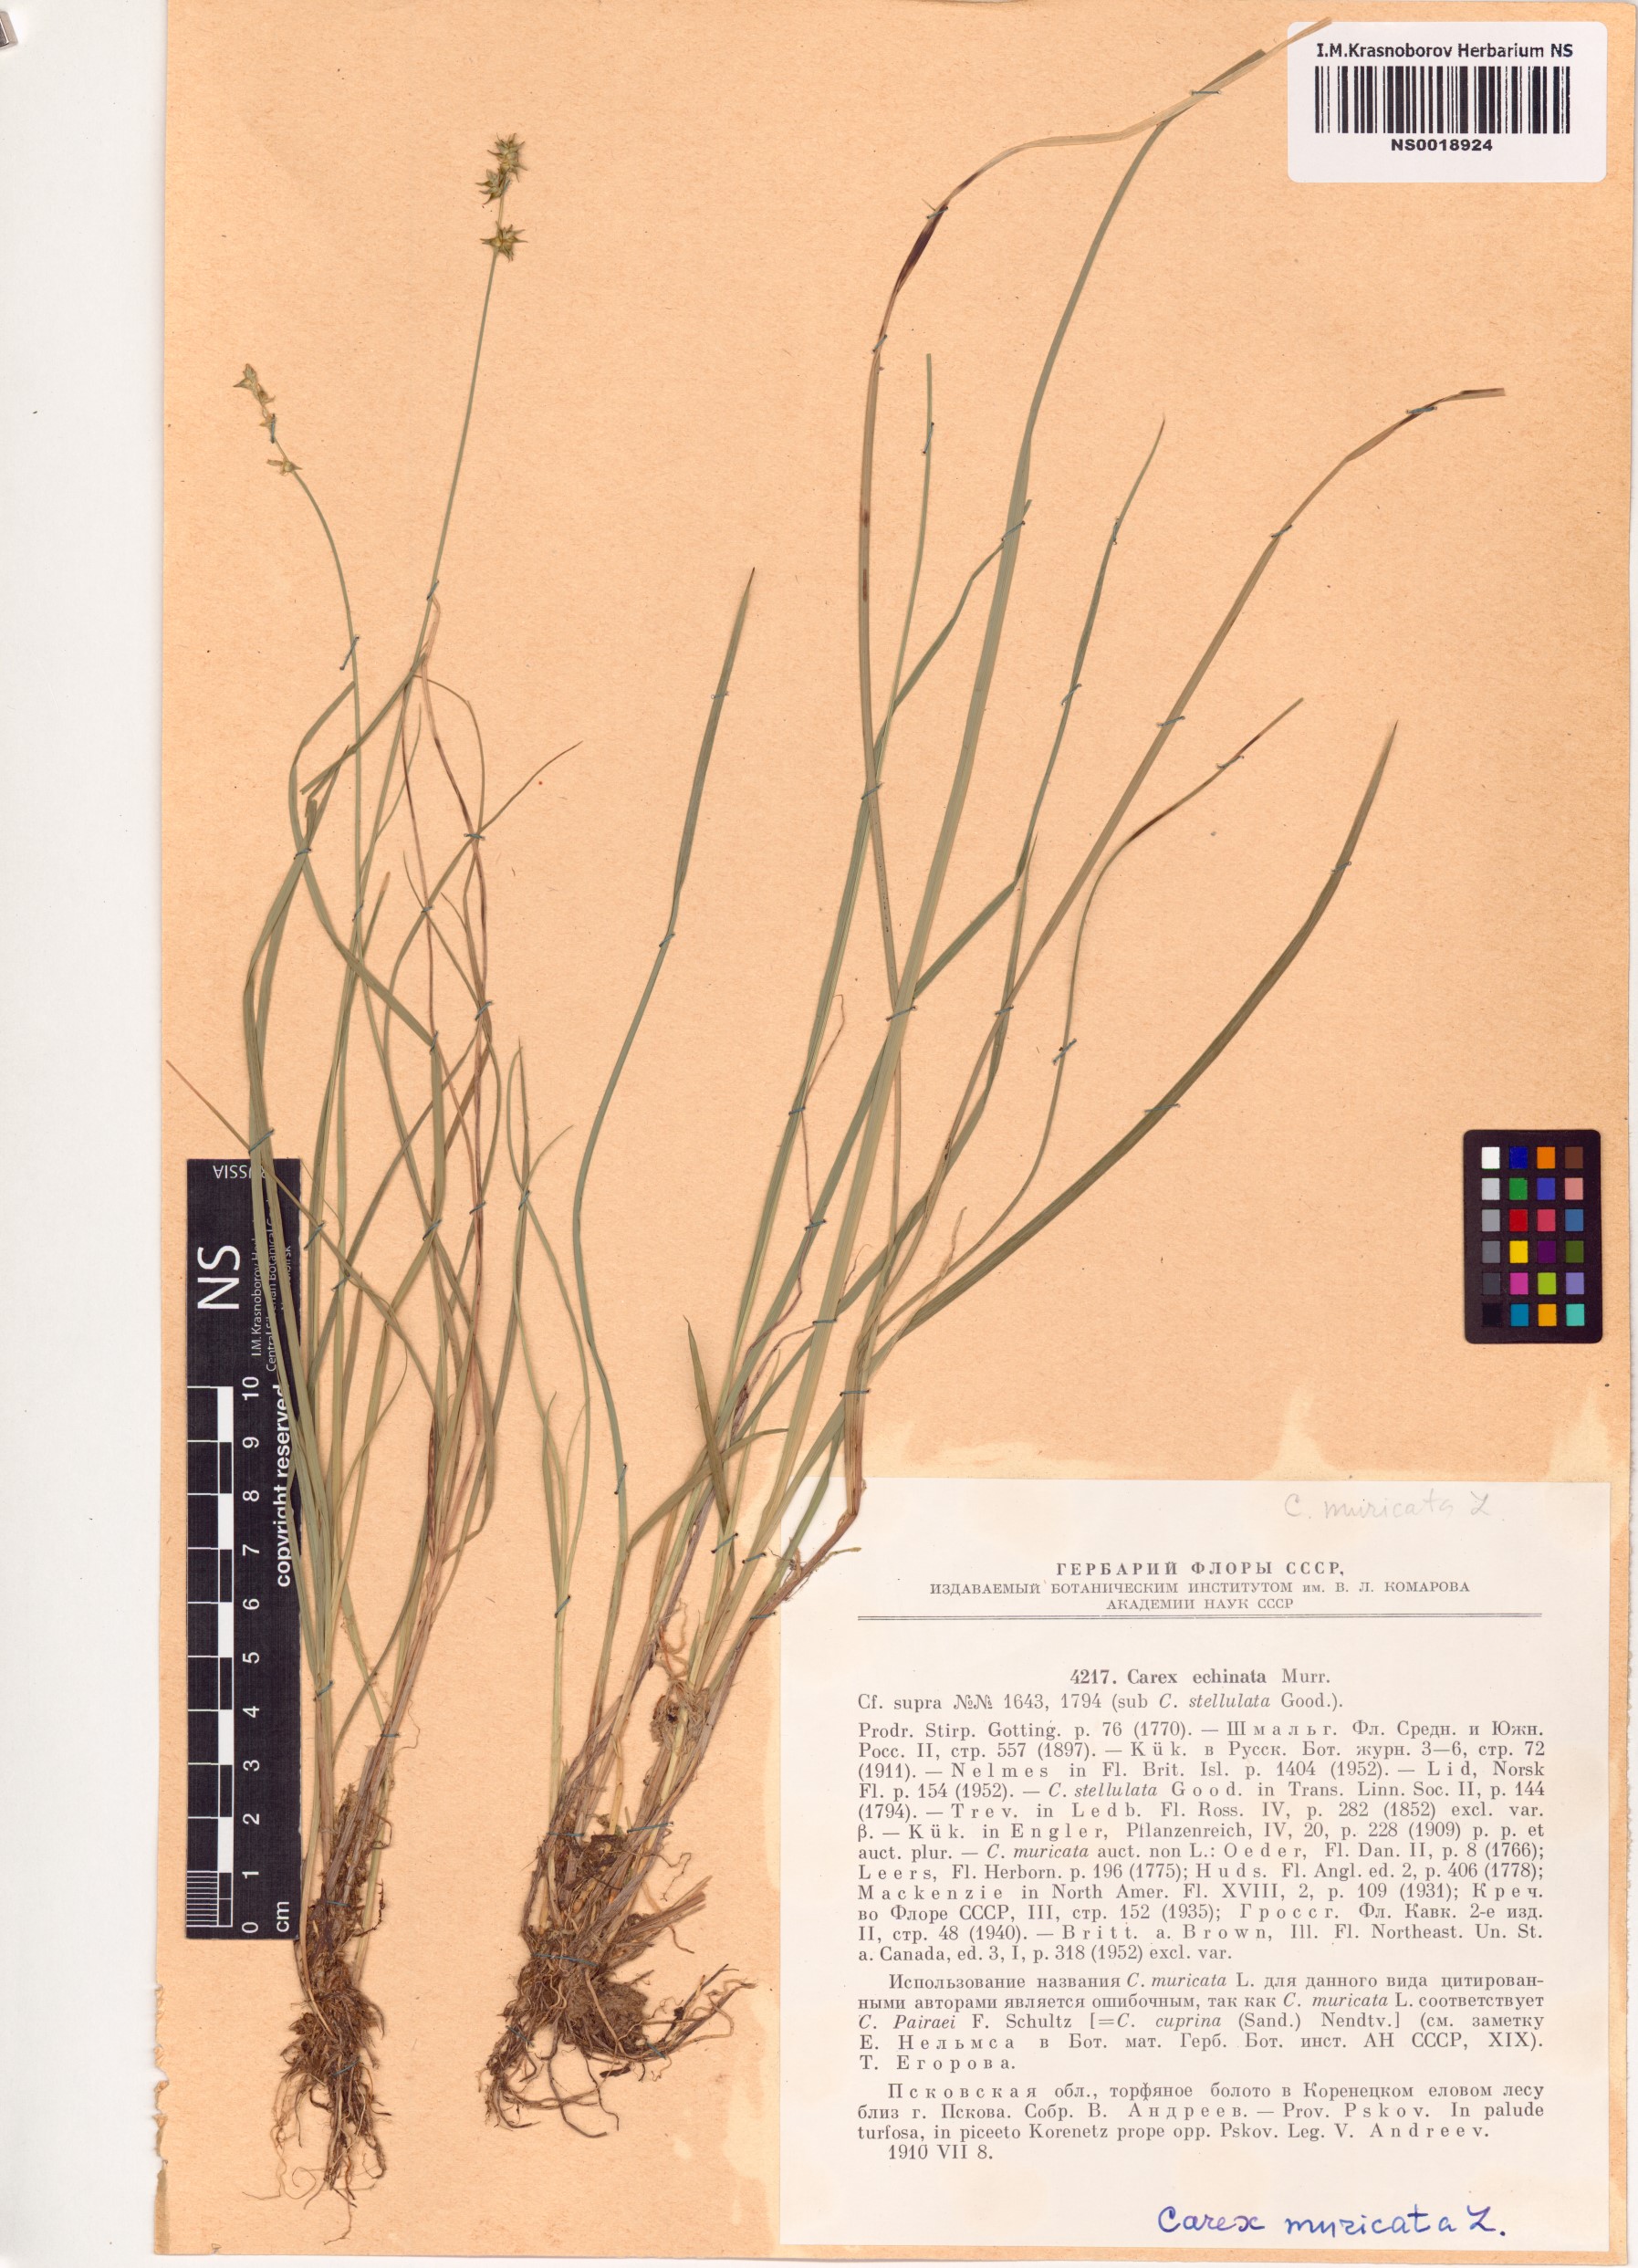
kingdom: Plantae
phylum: Tracheophyta
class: Liliopsida
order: Poales
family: Cyperaceae
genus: Carex
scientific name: Carex muricata
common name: Rough sedge
